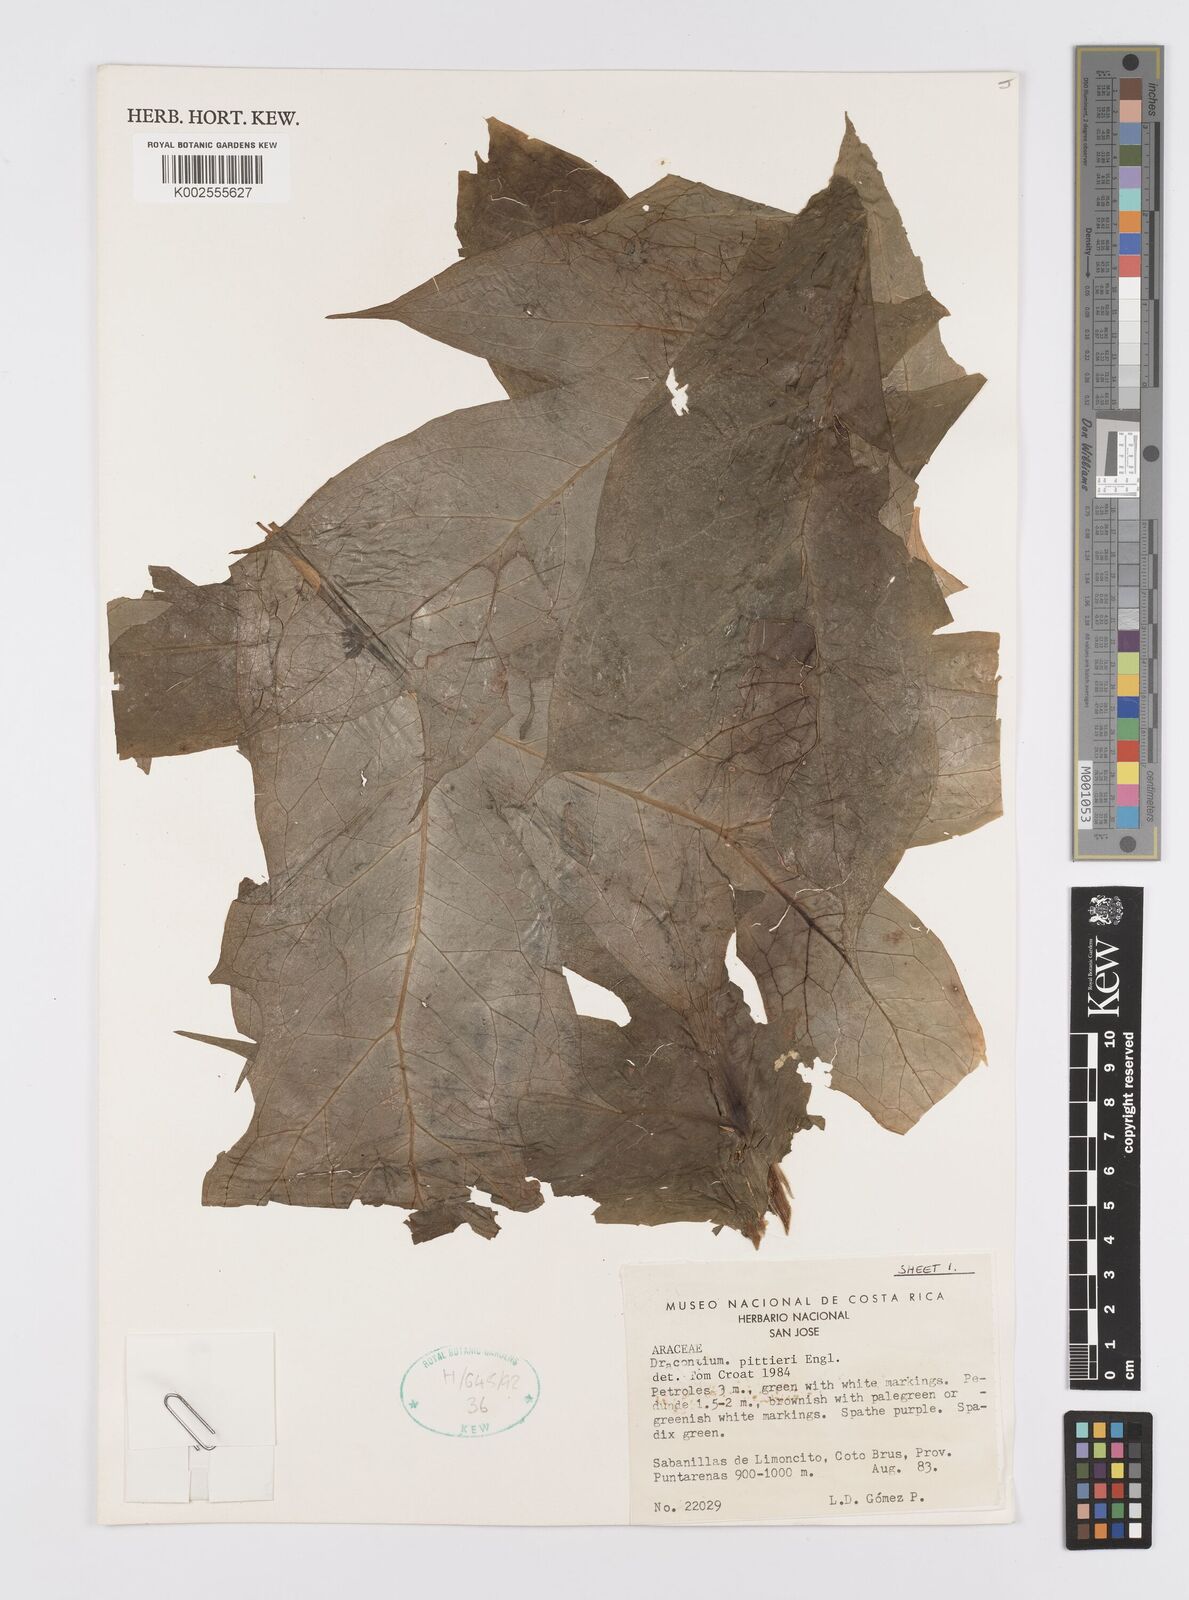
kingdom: Plantae
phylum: Tracheophyta
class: Liliopsida
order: Alismatales
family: Araceae
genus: Dracontium
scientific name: Dracontium pittieri
